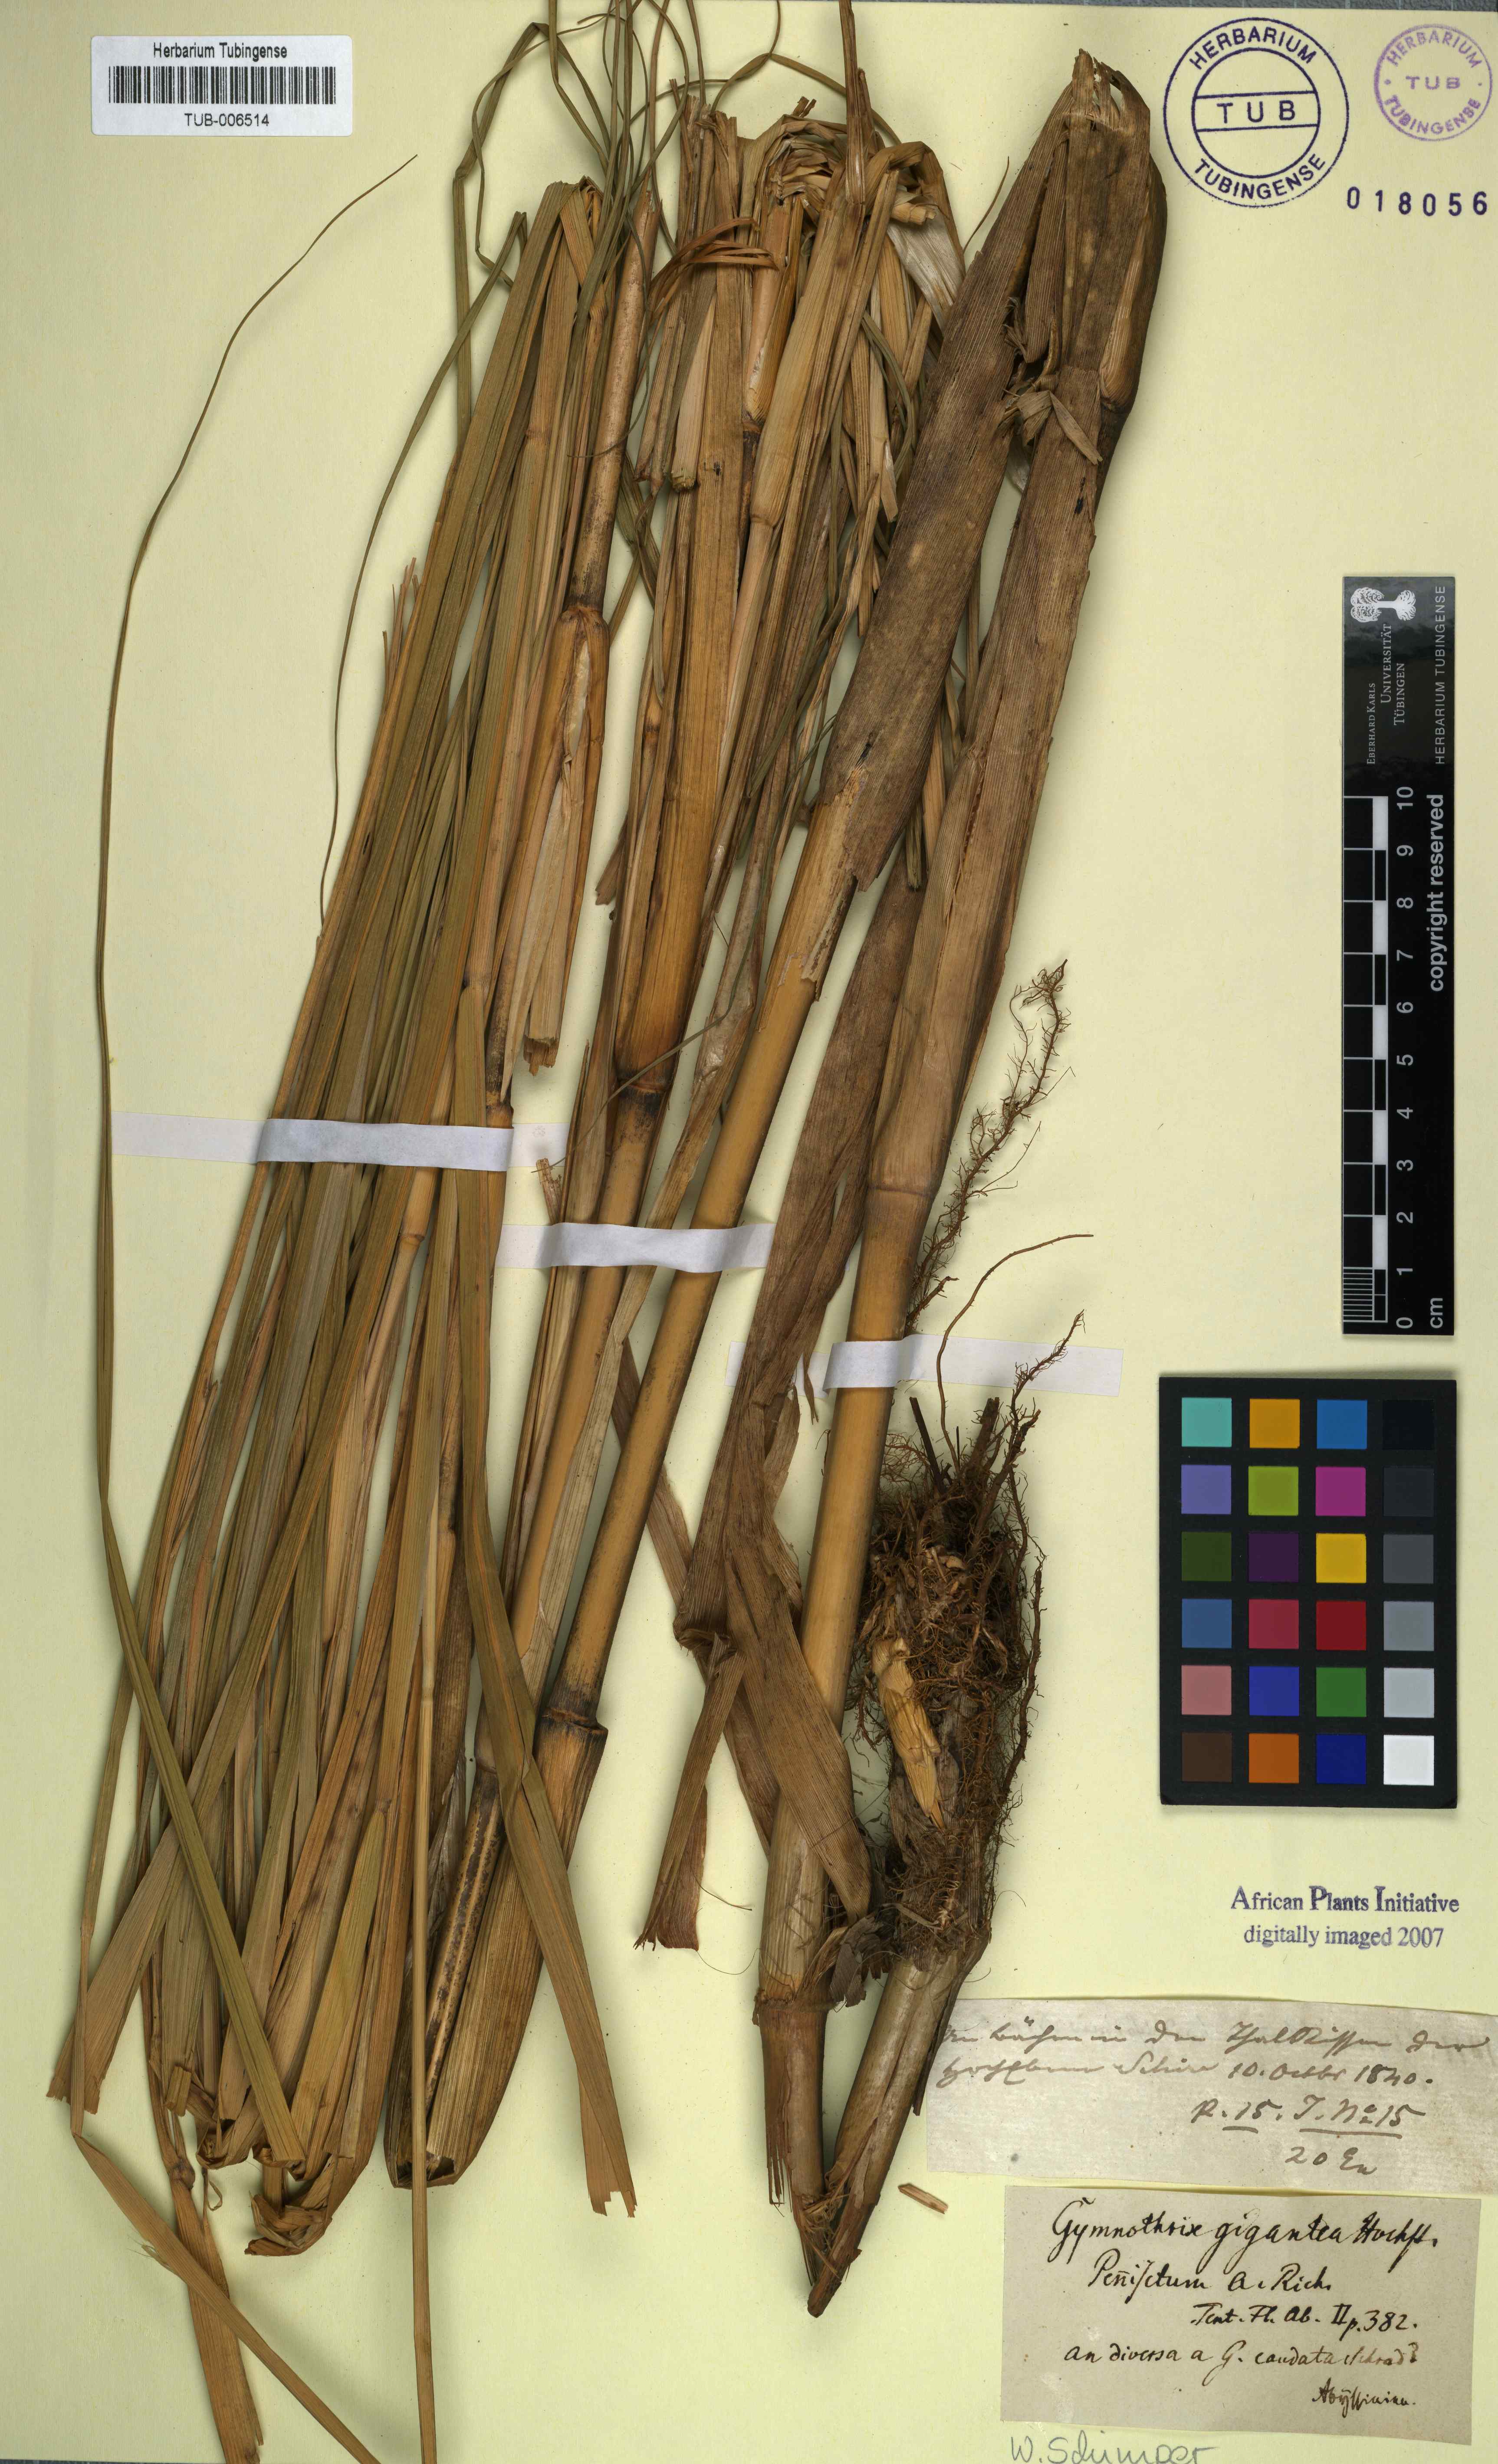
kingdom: Plantae
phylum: Tracheophyta
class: Liliopsida
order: Poales
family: Poaceae
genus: Cenchrus
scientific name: Cenchrus caudatus
